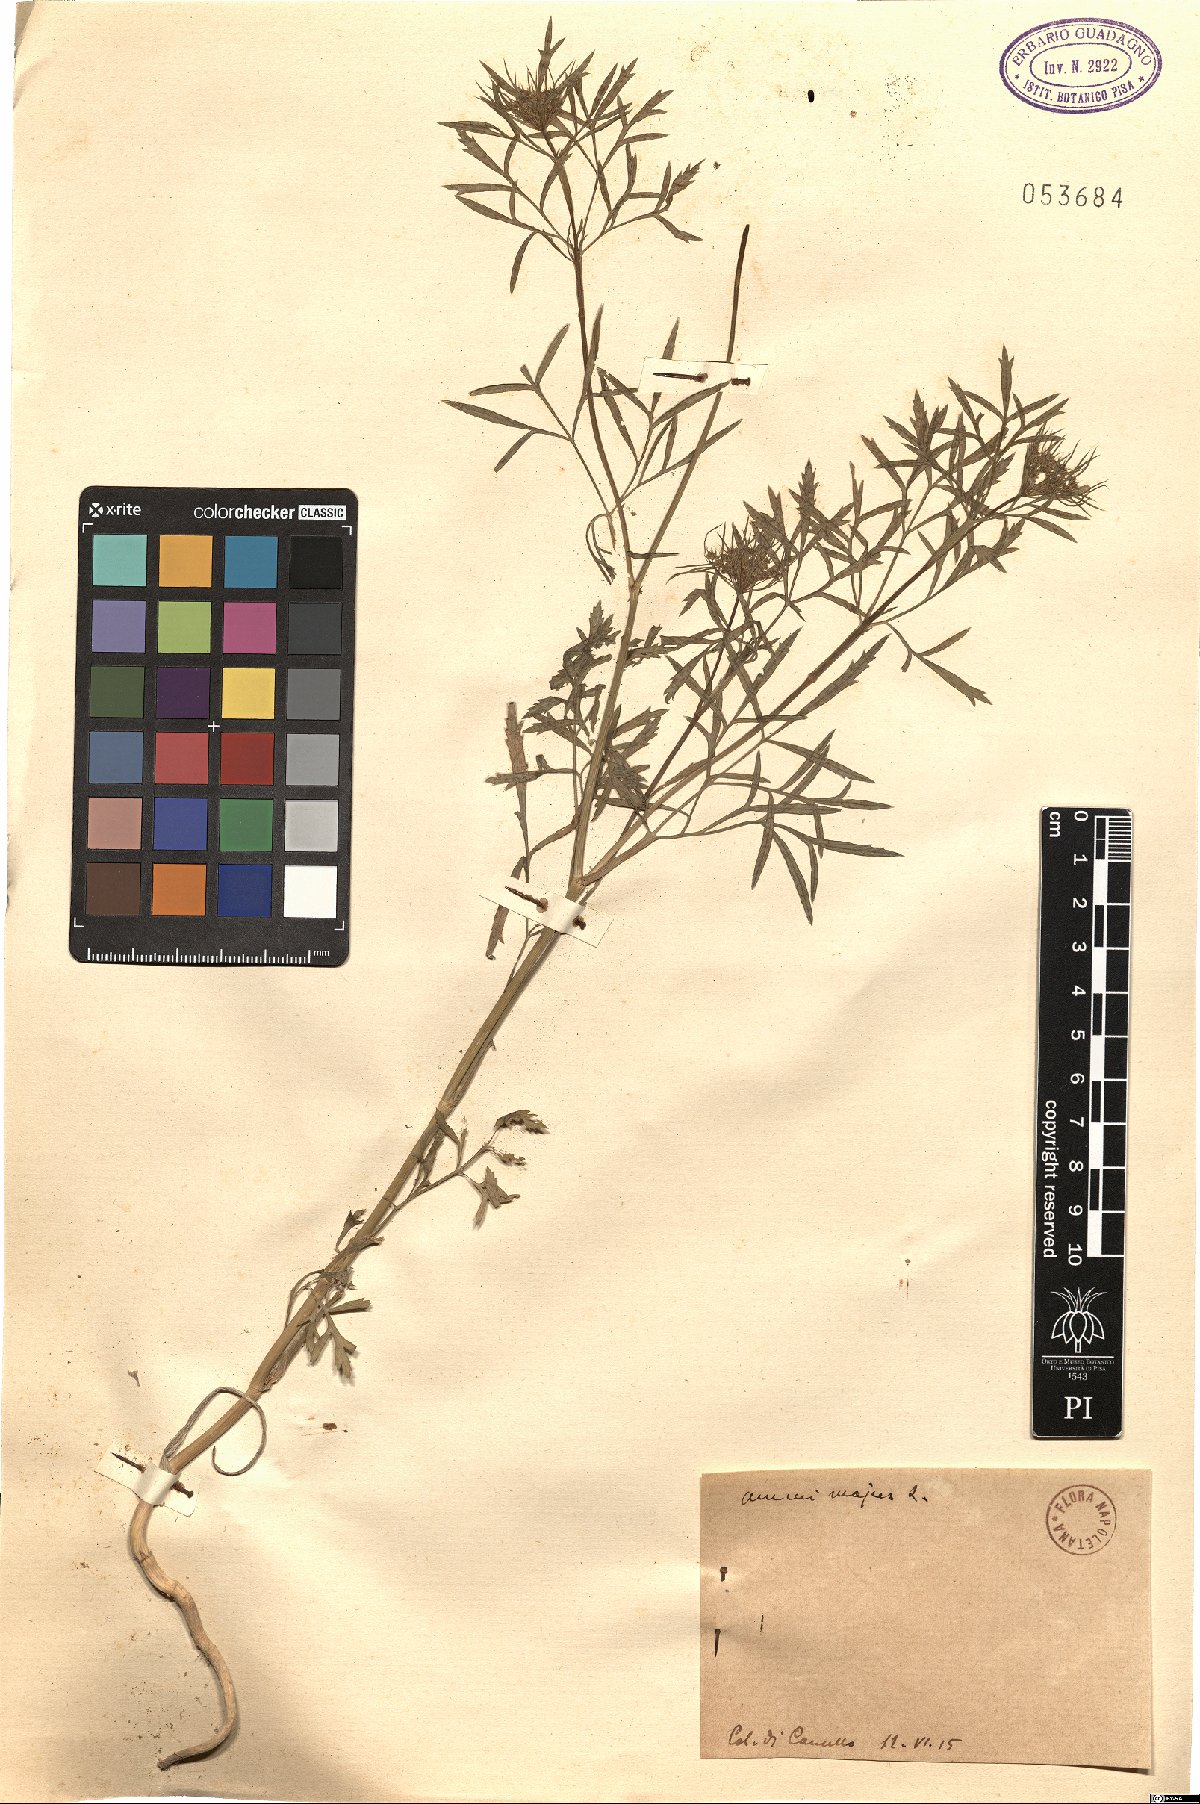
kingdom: Plantae
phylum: Tracheophyta
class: Magnoliopsida
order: Apiales
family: Apiaceae
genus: Ammi
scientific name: Ammi majus
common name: Bullwort
